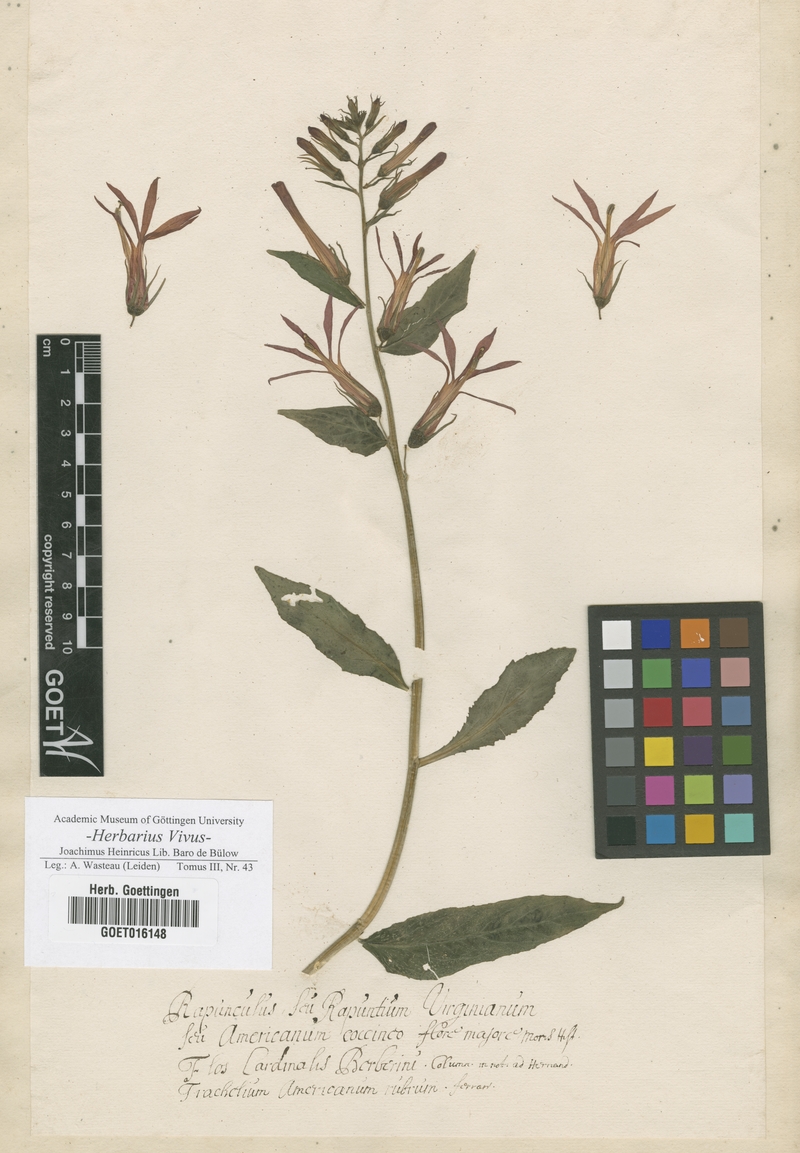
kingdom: Plantae
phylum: Tracheophyta
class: Magnoliopsida
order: Asterales
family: Campanulaceae
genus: Lobelia
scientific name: Lobelia cardinalis
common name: Cardinal flower
